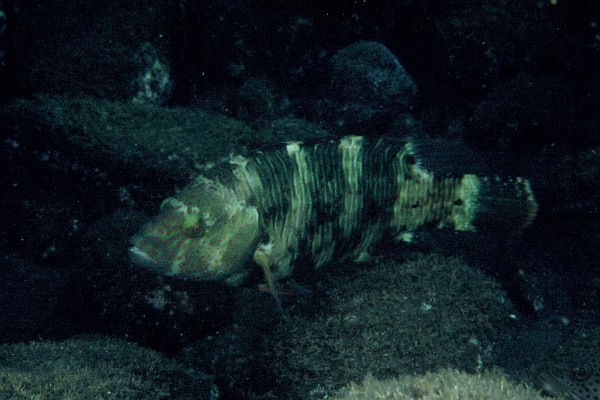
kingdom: Animalia
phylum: Chordata
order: Perciformes
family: Labridae
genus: Cheilinus
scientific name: Cheilinus trilobatus
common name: Tripletail maori wrasse
